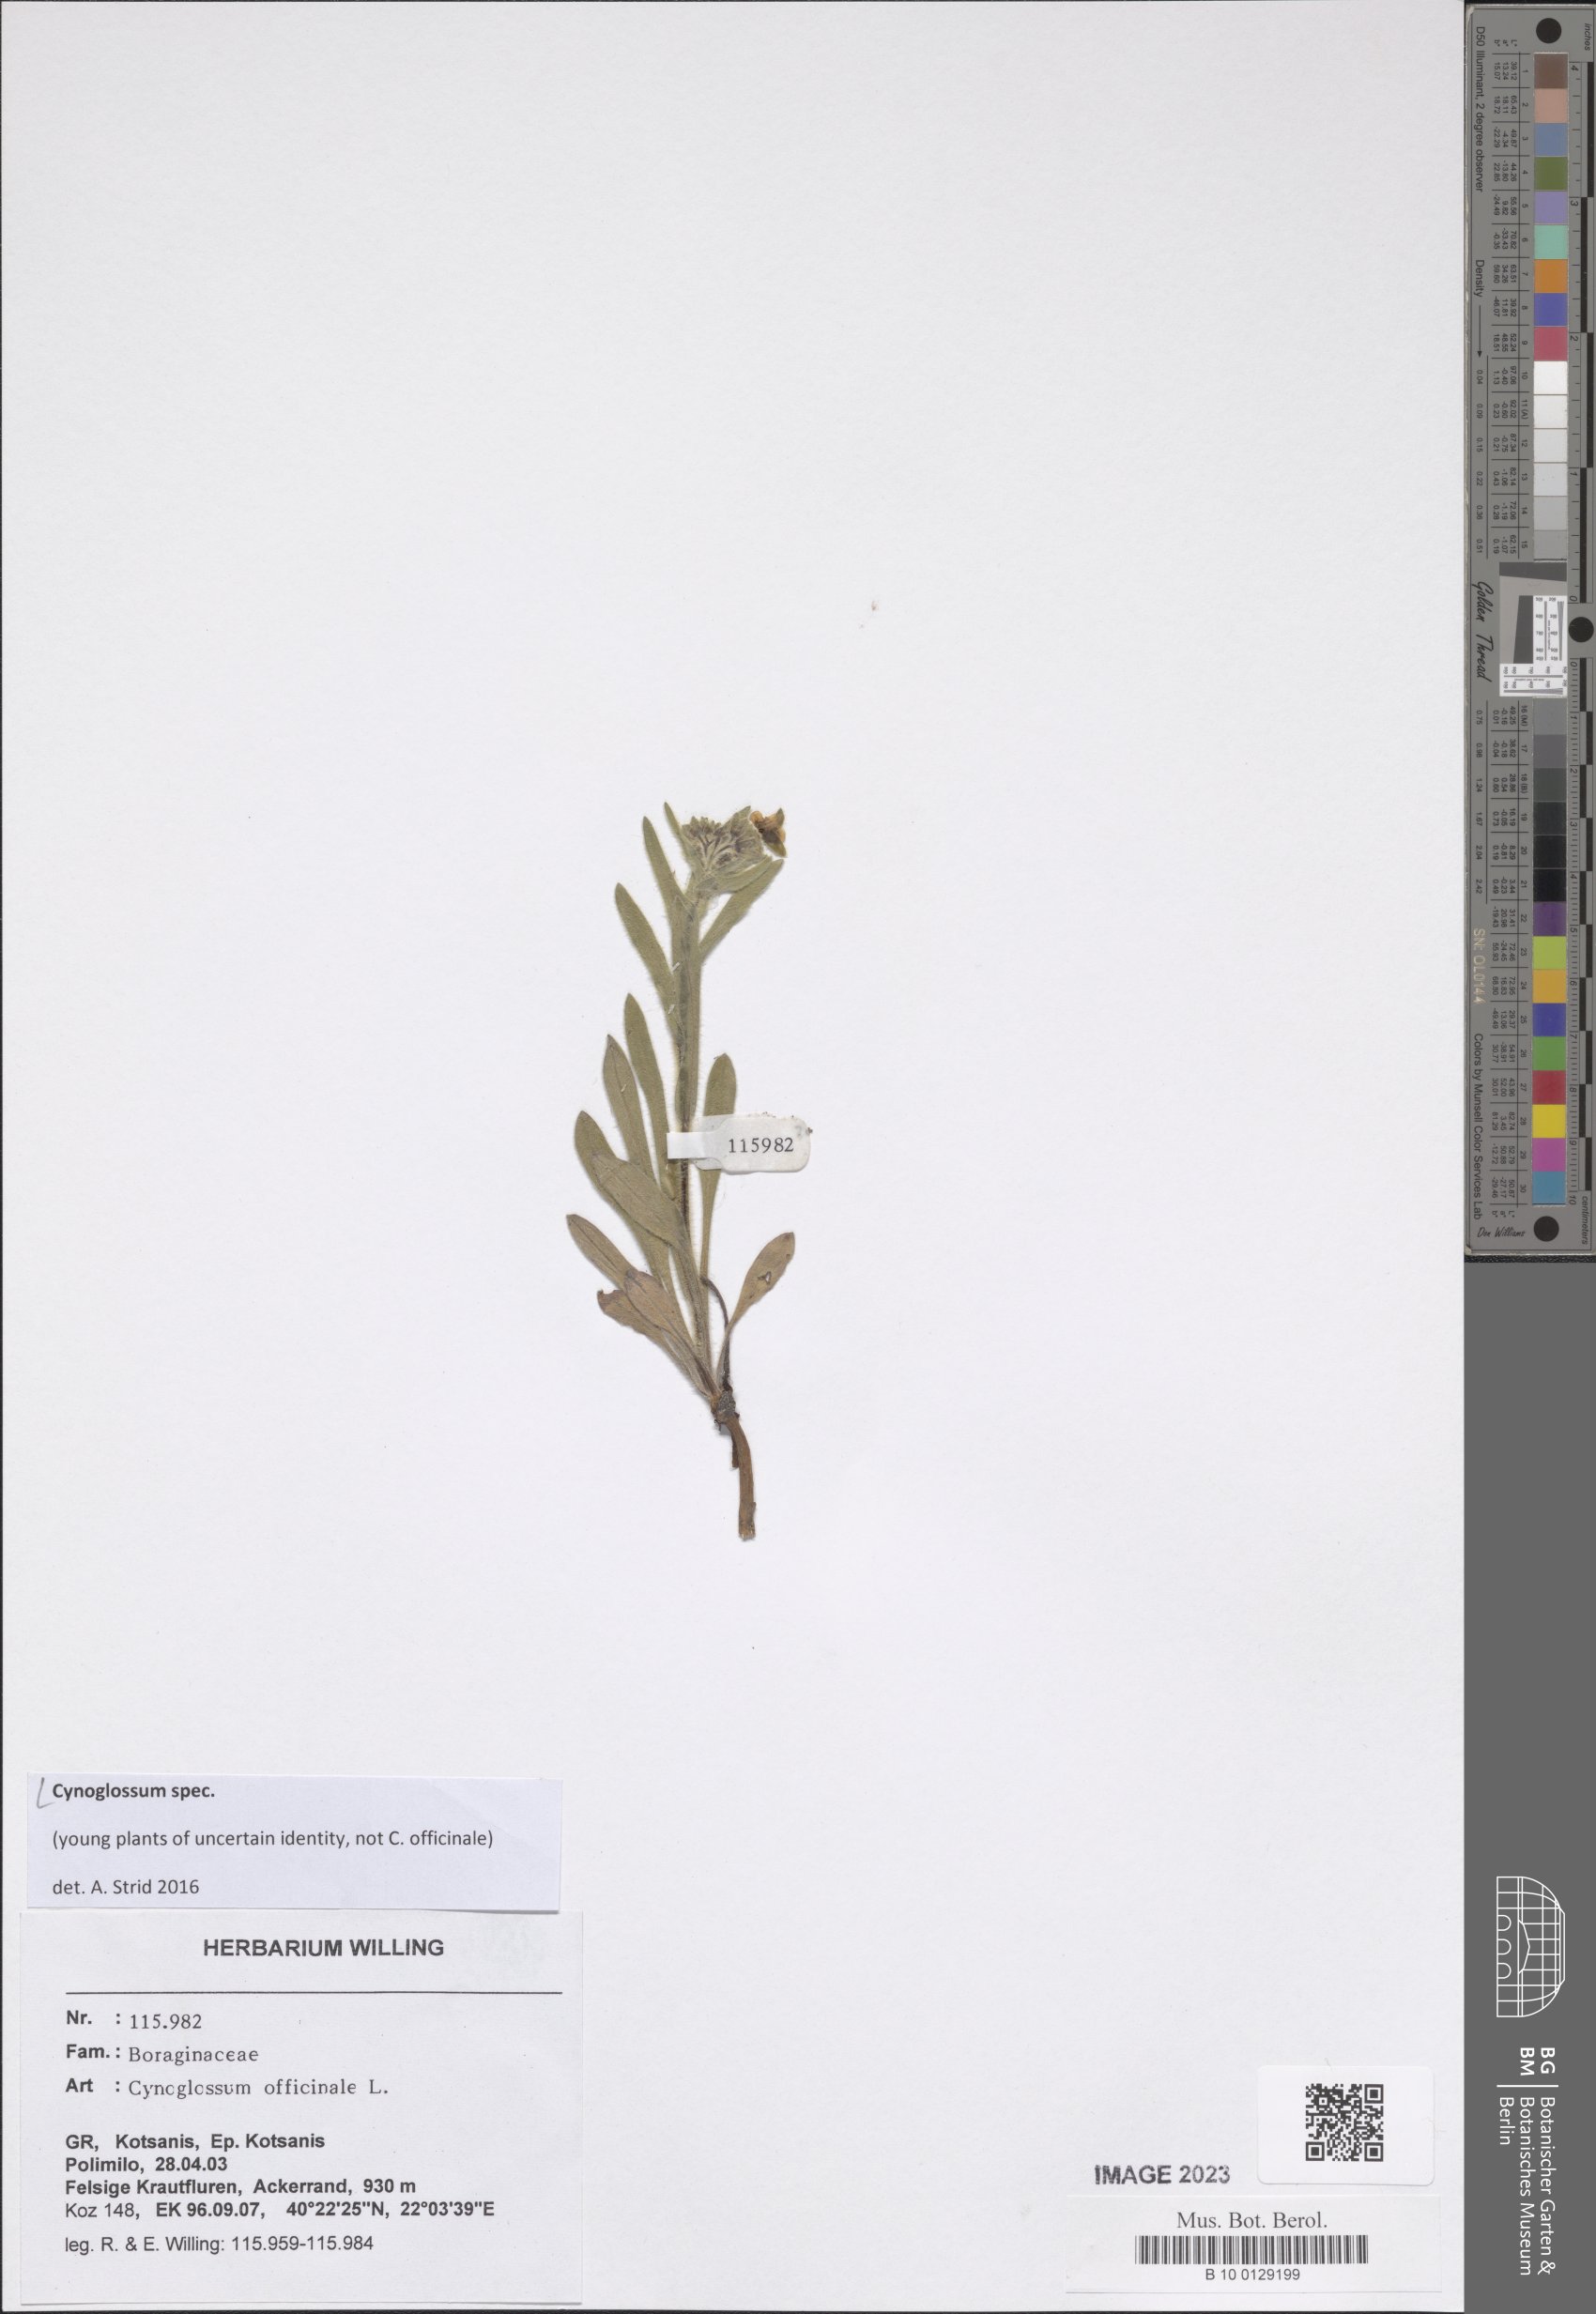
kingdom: Plantae
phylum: Tracheophyta
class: Magnoliopsida
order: Boraginales
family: Boraginaceae
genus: Cynoglossum
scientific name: Cynoglossum
